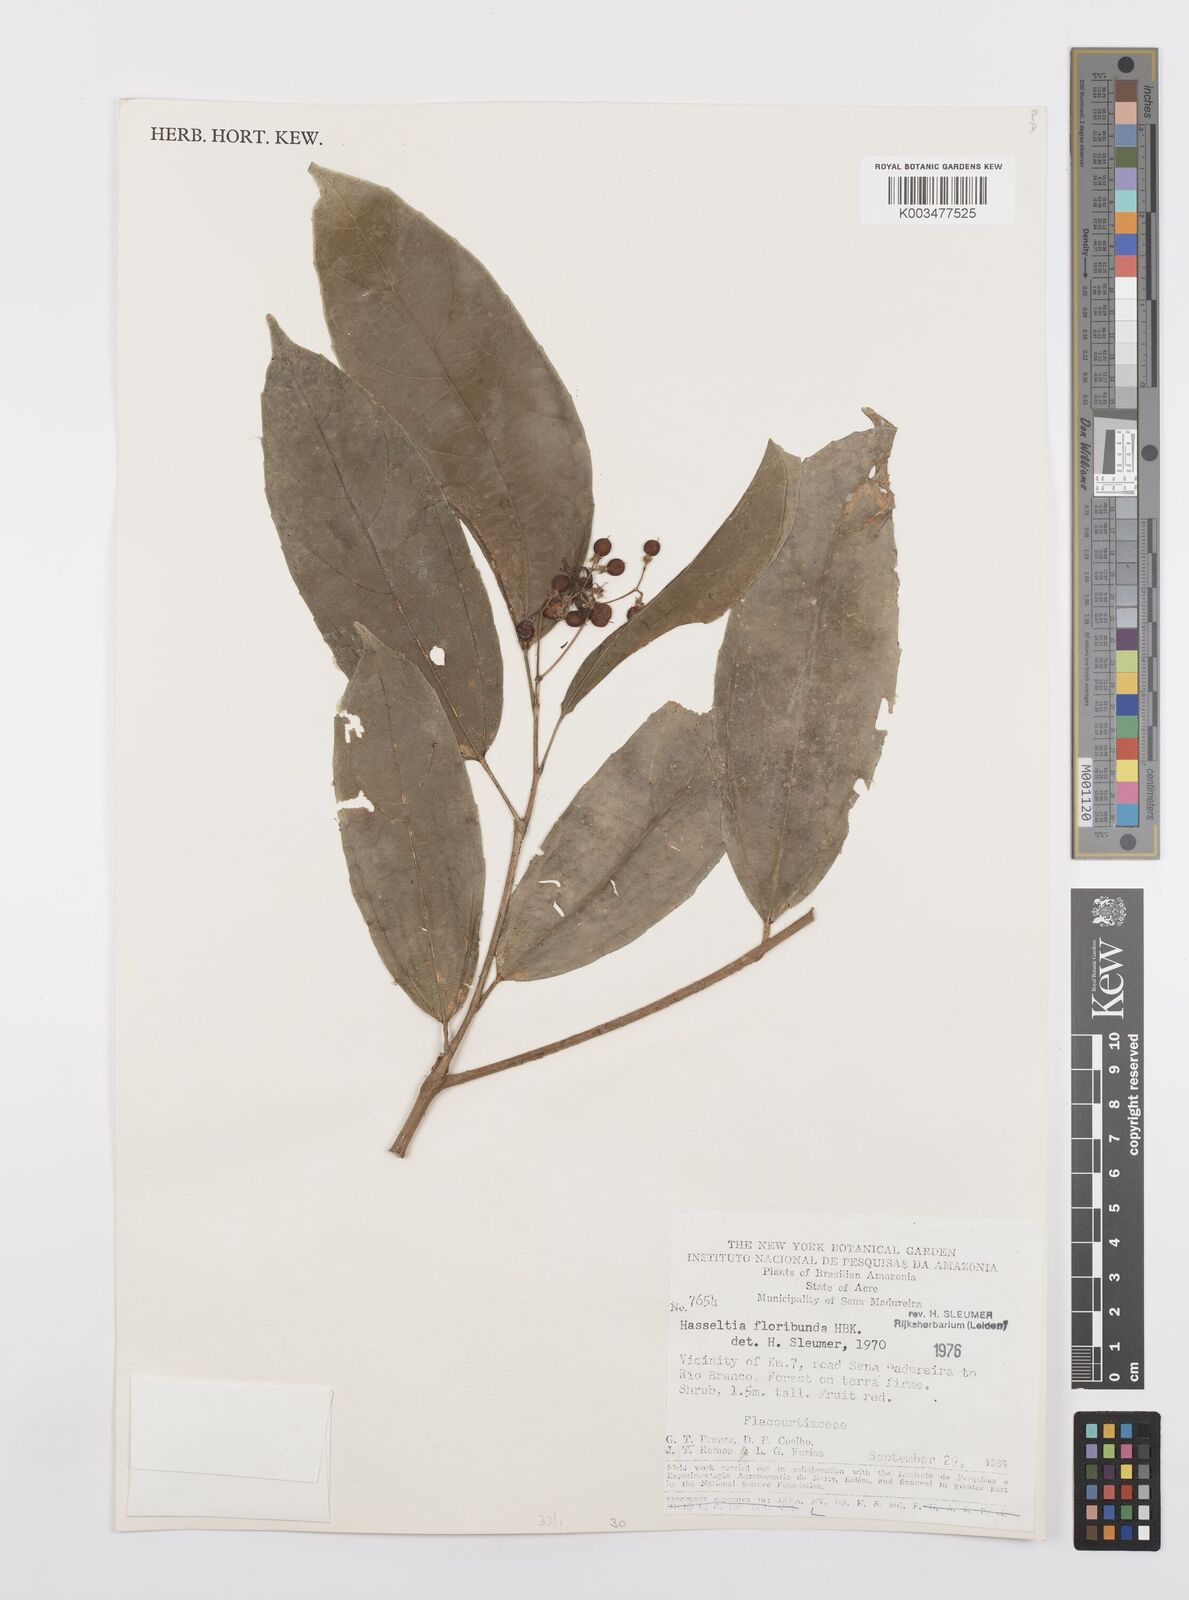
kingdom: Plantae
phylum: Tracheophyta
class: Magnoliopsida
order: Malpighiales
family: Salicaceae
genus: Hasseltia
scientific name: Hasseltia floribunda
